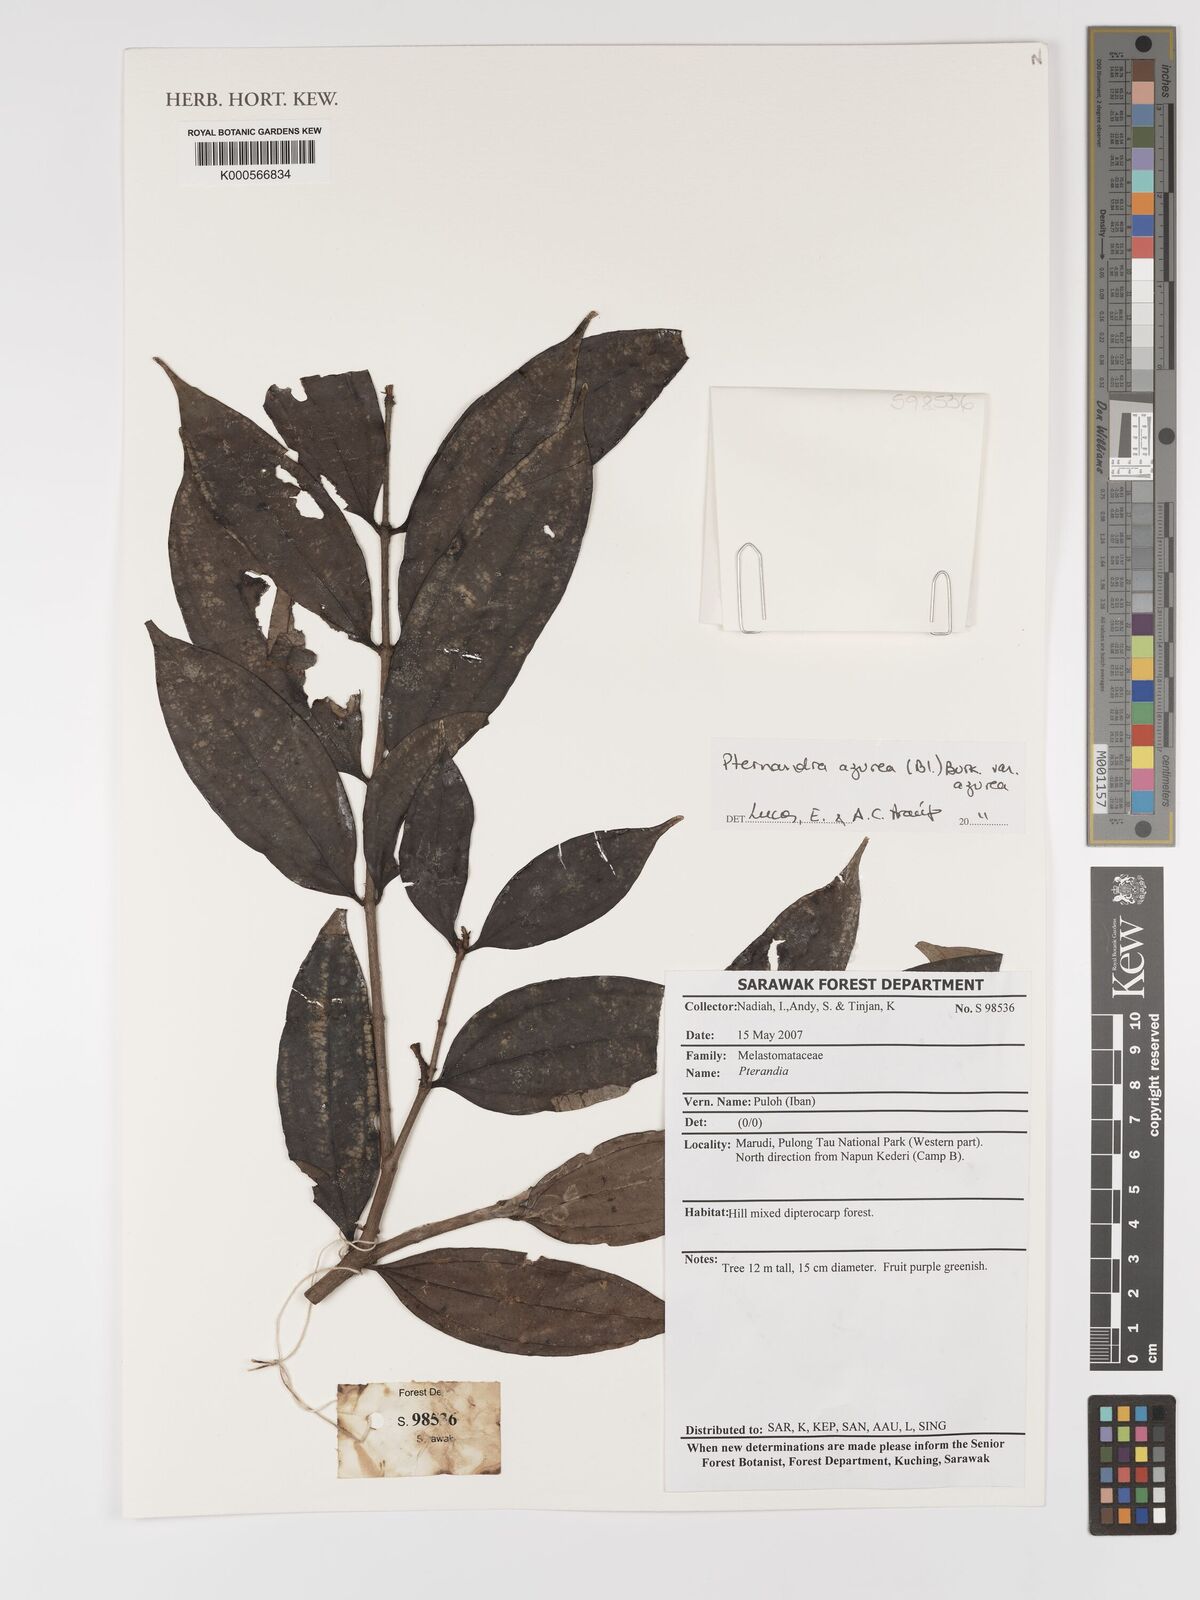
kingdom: Plantae
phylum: Tracheophyta
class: Magnoliopsida
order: Myrtales
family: Melastomataceae
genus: Pternandra
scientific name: Pternandra azurea
